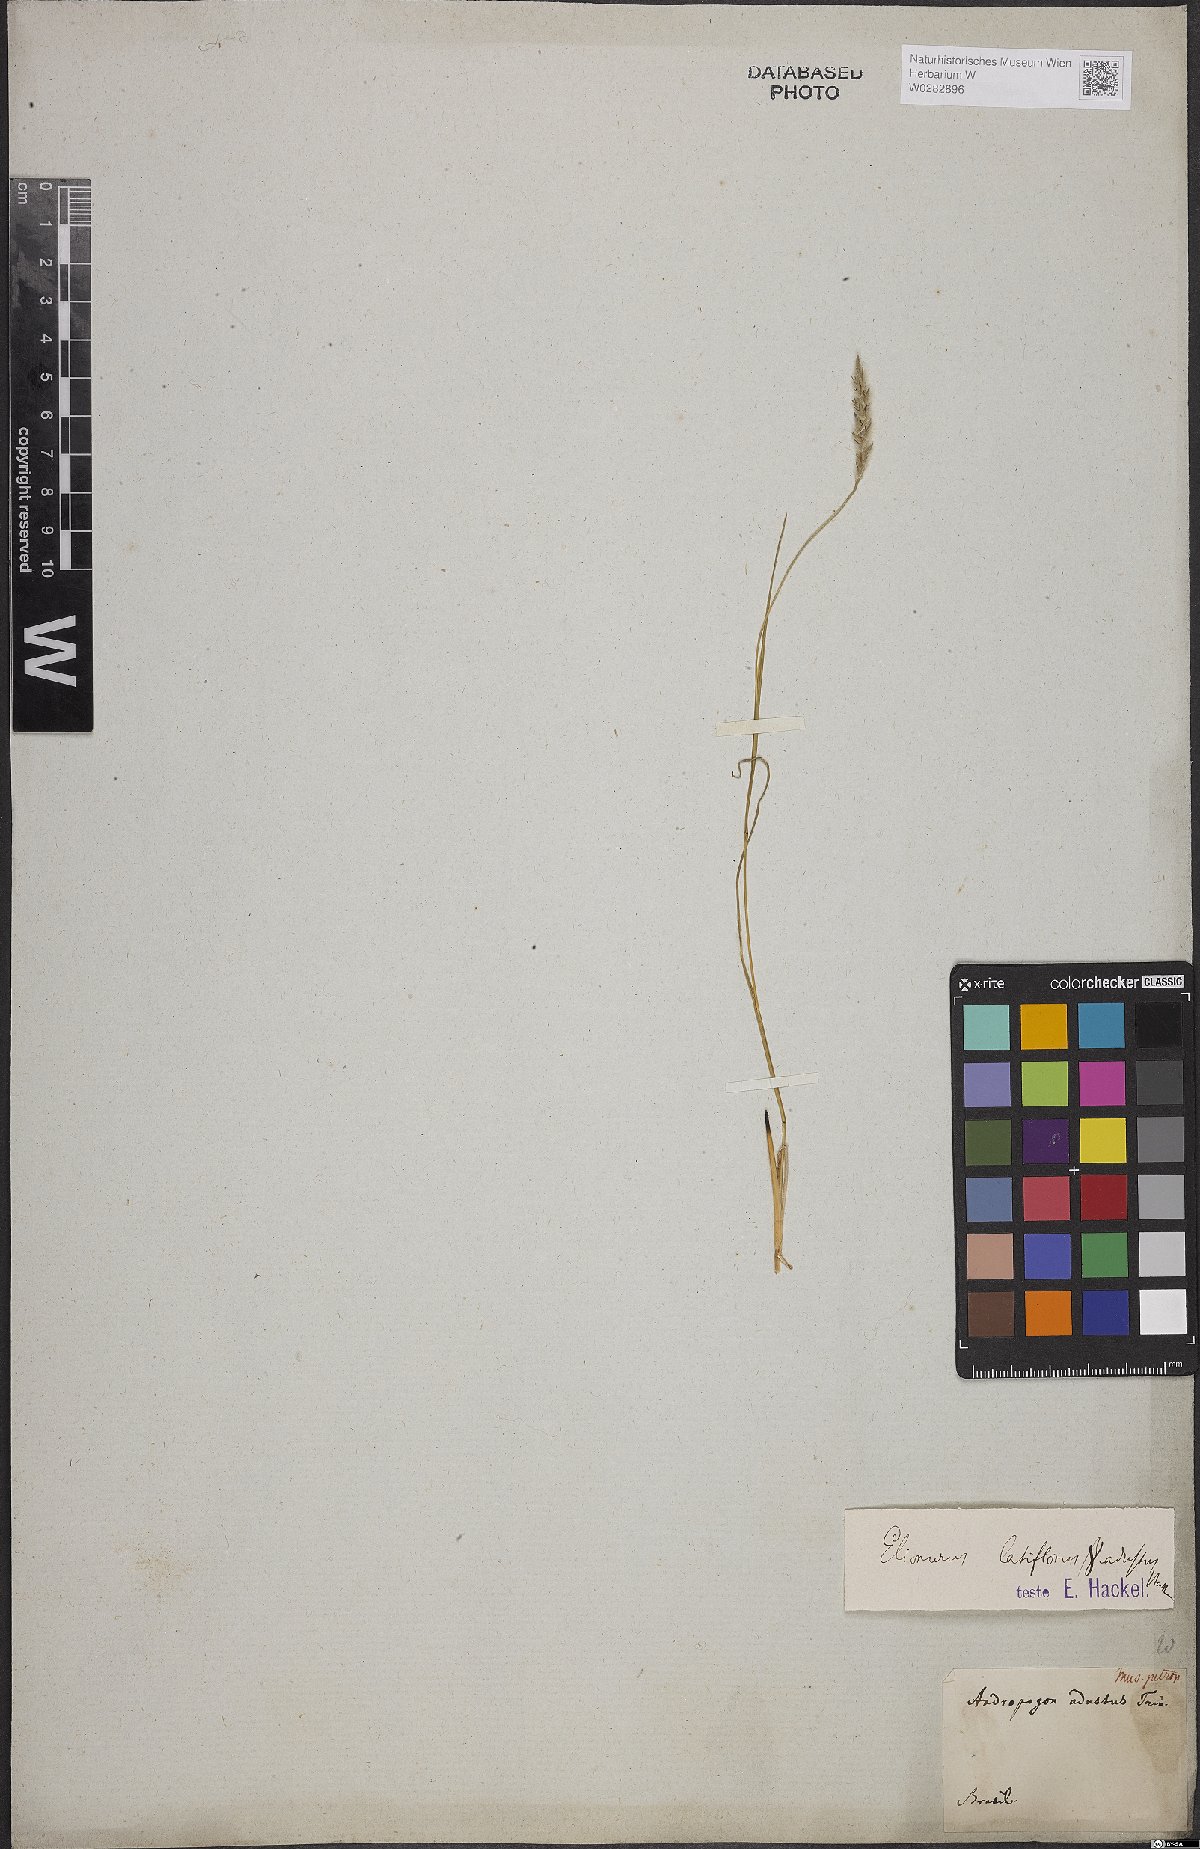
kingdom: Plantae
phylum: Tracheophyta
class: Liliopsida
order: Poales
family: Poaceae
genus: Elionurus
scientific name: Elionurus muticus
